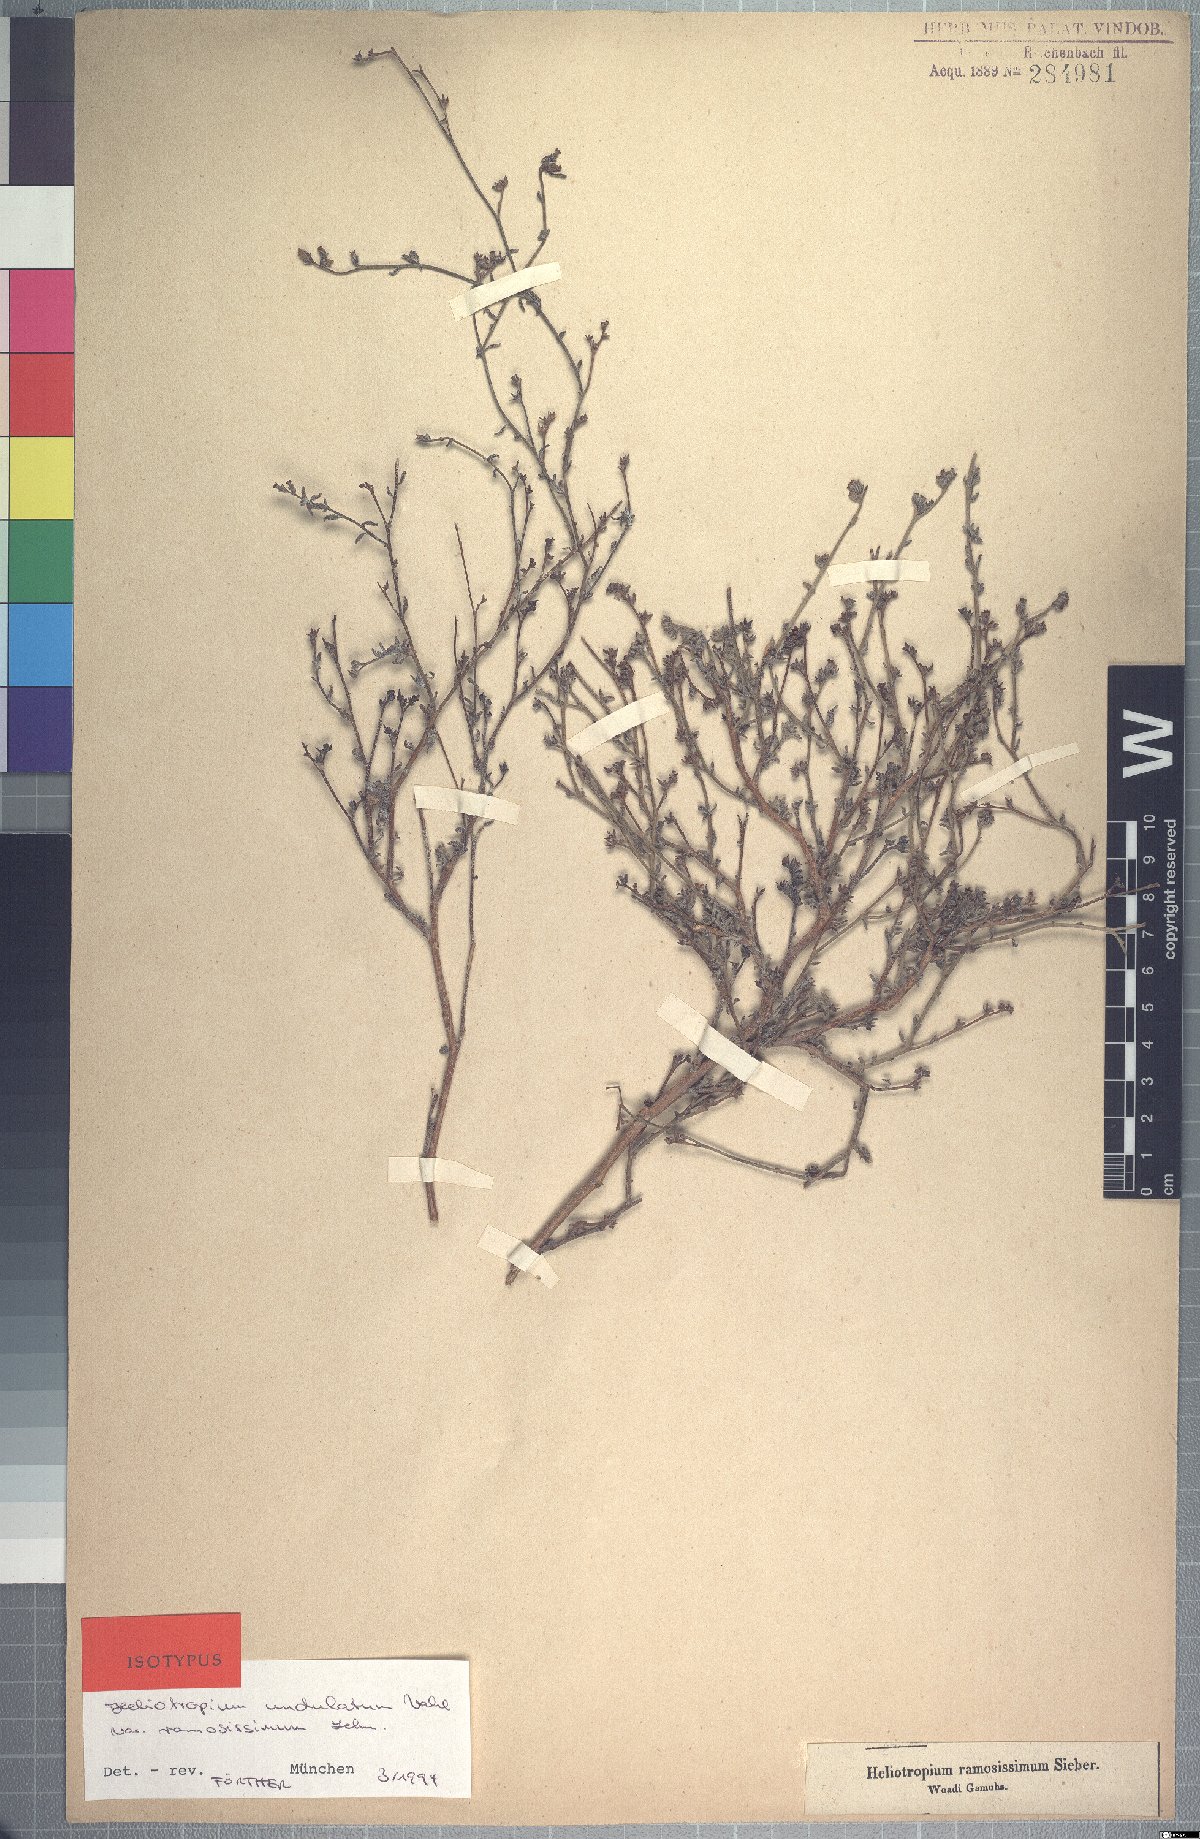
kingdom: Plantae
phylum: Tracheophyta
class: Magnoliopsida
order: Boraginales
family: Heliotropiaceae
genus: Heliotropium
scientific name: Heliotropium bacciferum
